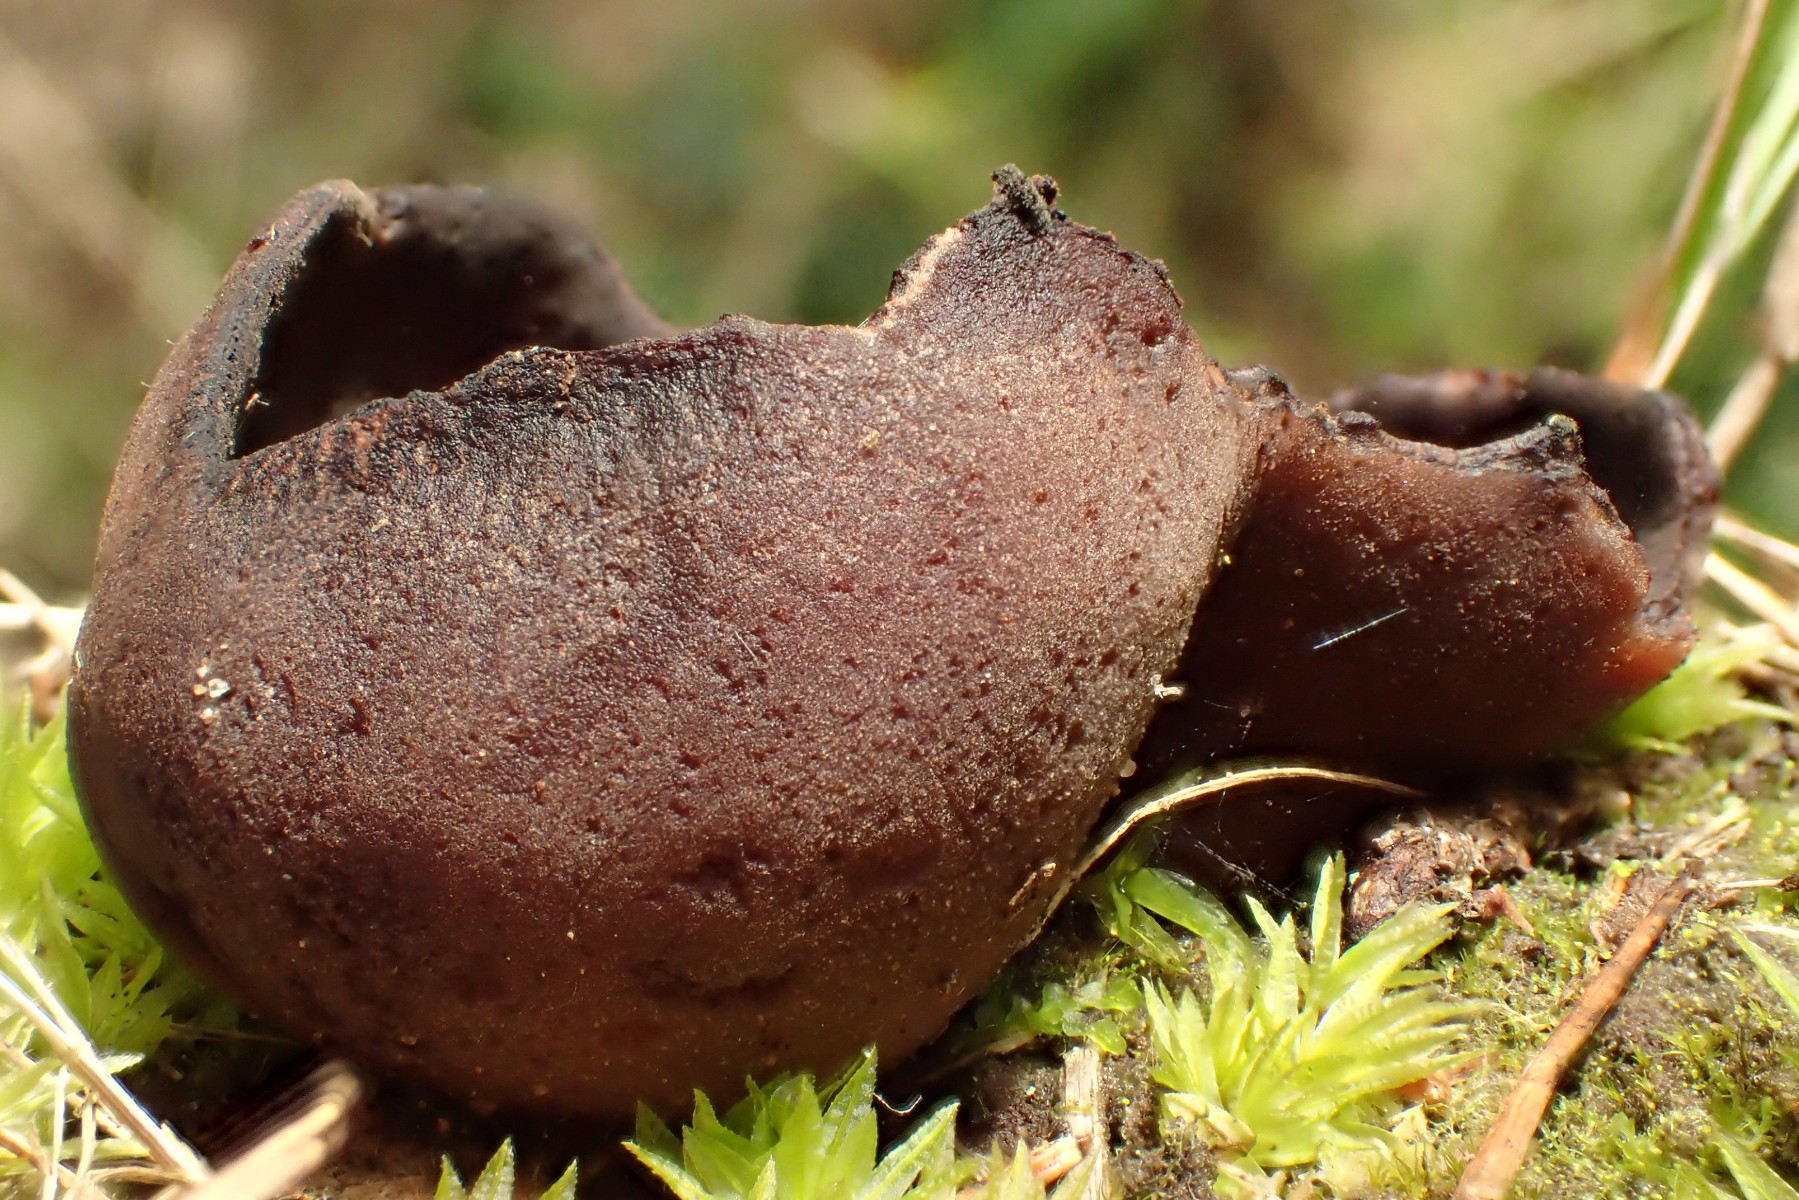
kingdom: Fungi
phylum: Ascomycota
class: Pezizomycetes
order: Pezizales
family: Pezizaceae
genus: Legaliana
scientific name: Legaliana badia
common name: leverbrun bægersvamp
